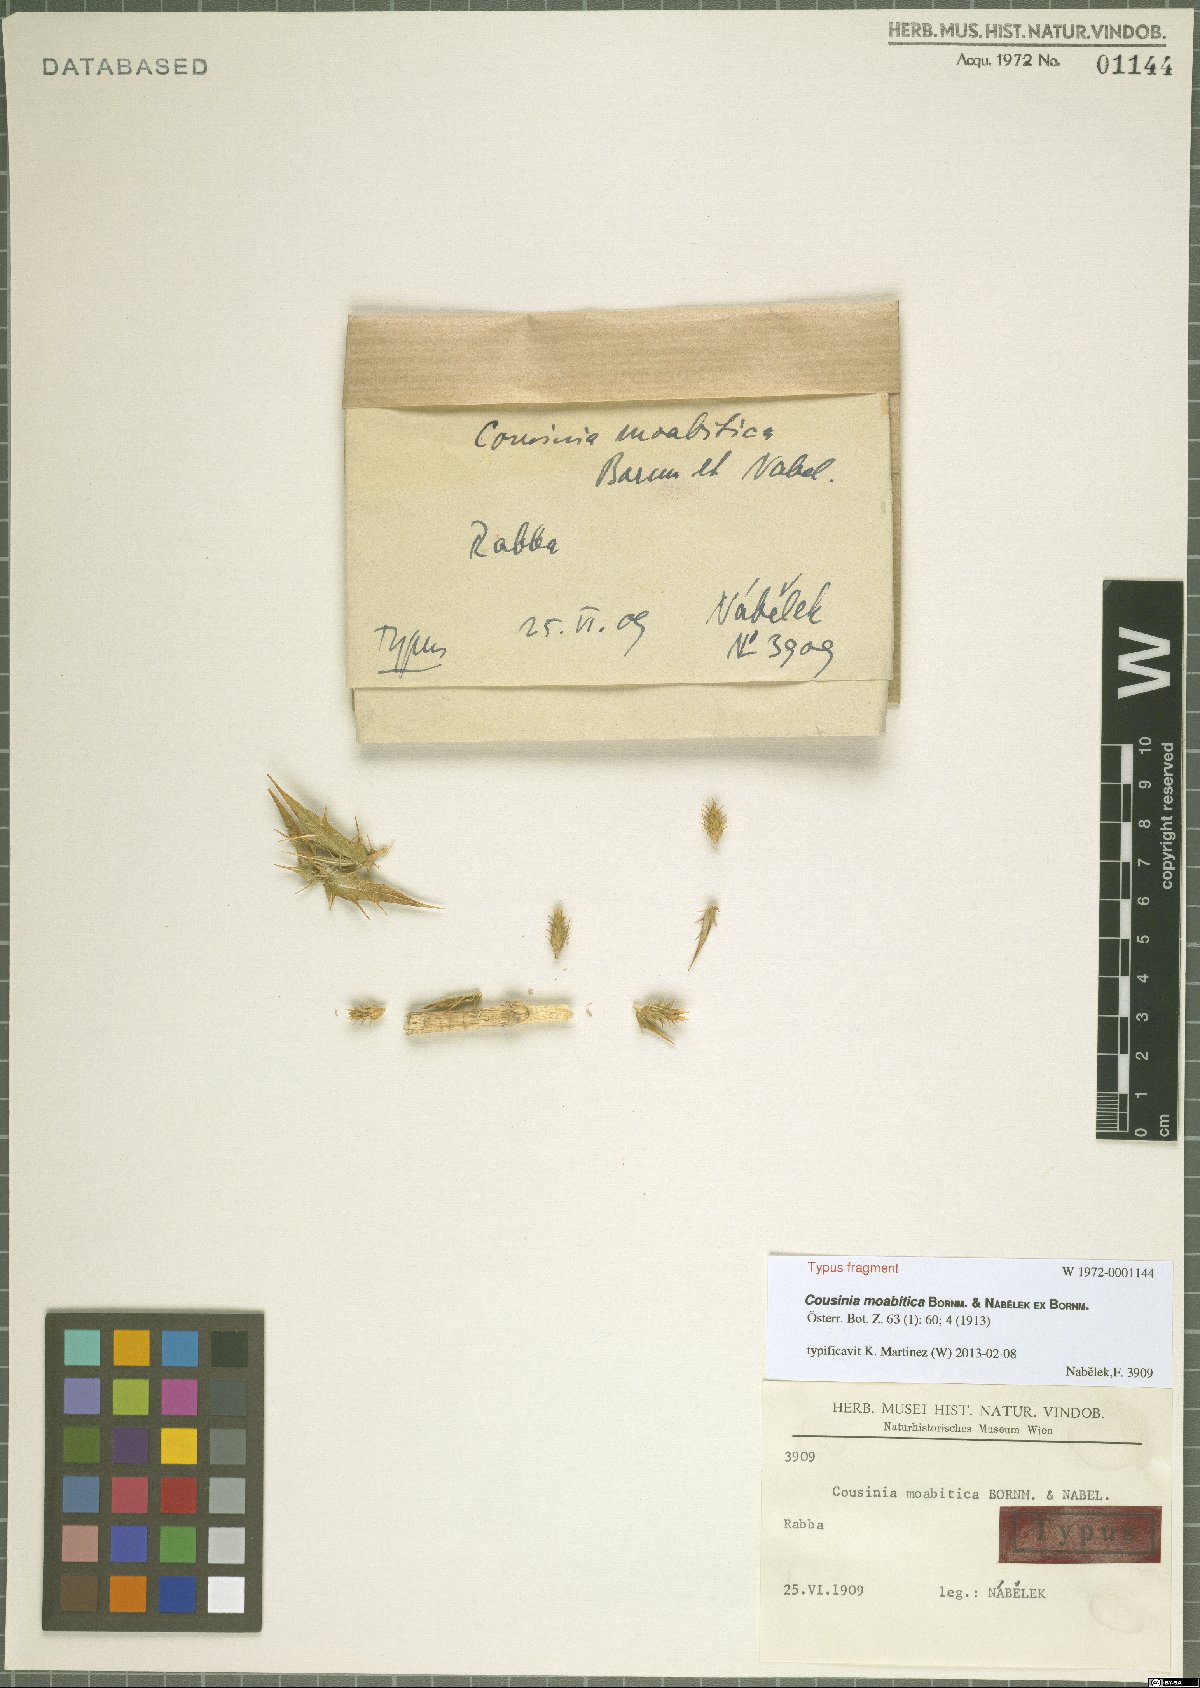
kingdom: Plantae
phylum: Tracheophyta
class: Magnoliopsida
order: Asterales
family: Asteraceae
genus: Cousinia
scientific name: Cousinia moabitica
